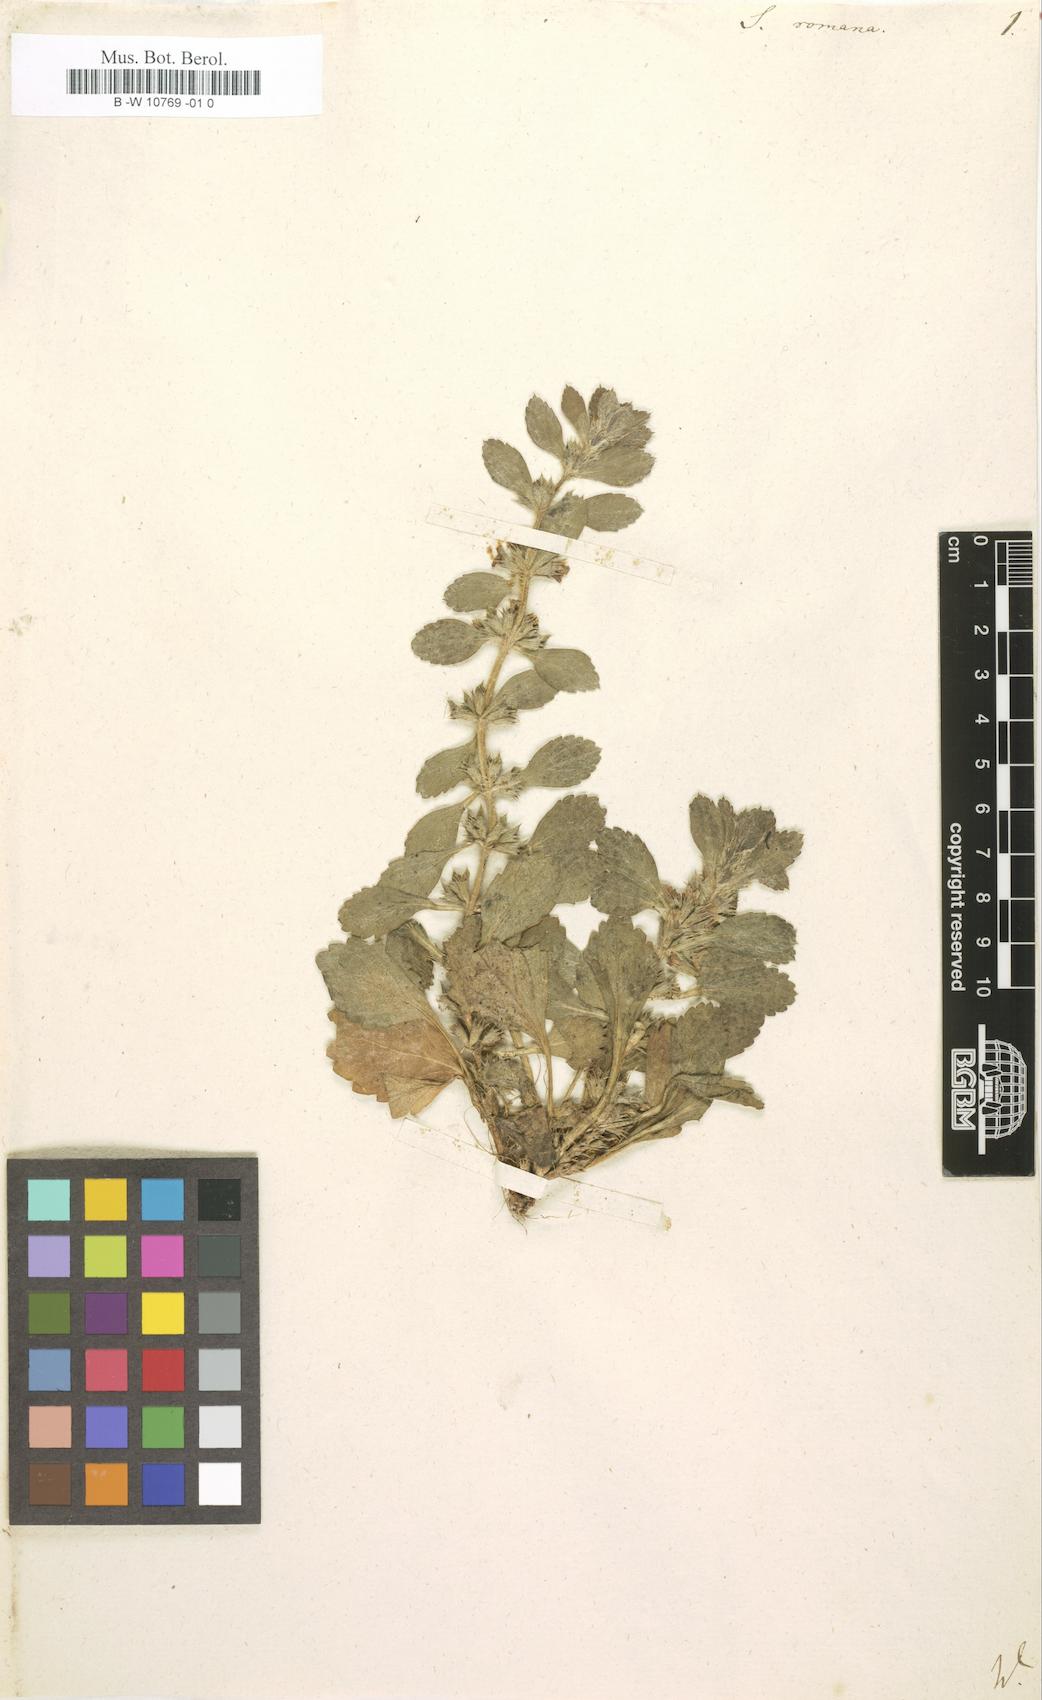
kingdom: Plantae
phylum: Tracheophyta
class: Magnoliopsida
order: Lamiales
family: Lamiaceae
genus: Sideritis
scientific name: Sideritis romana
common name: Simplebeak ironwort
